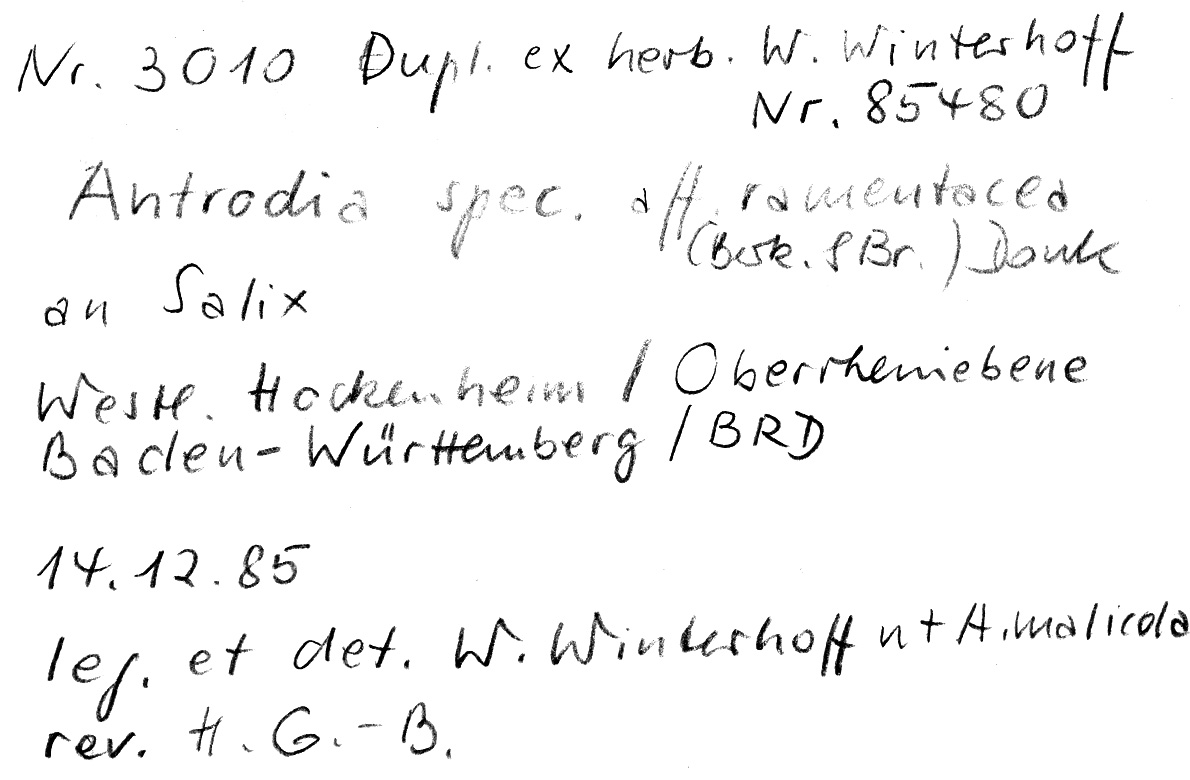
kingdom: Fungi
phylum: Basidiomycota
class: Agaricomycetes
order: Polyporales
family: Fomitopsidaceae
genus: Antrodia
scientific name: Antrodia ramentacea
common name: Honeycomb crust
